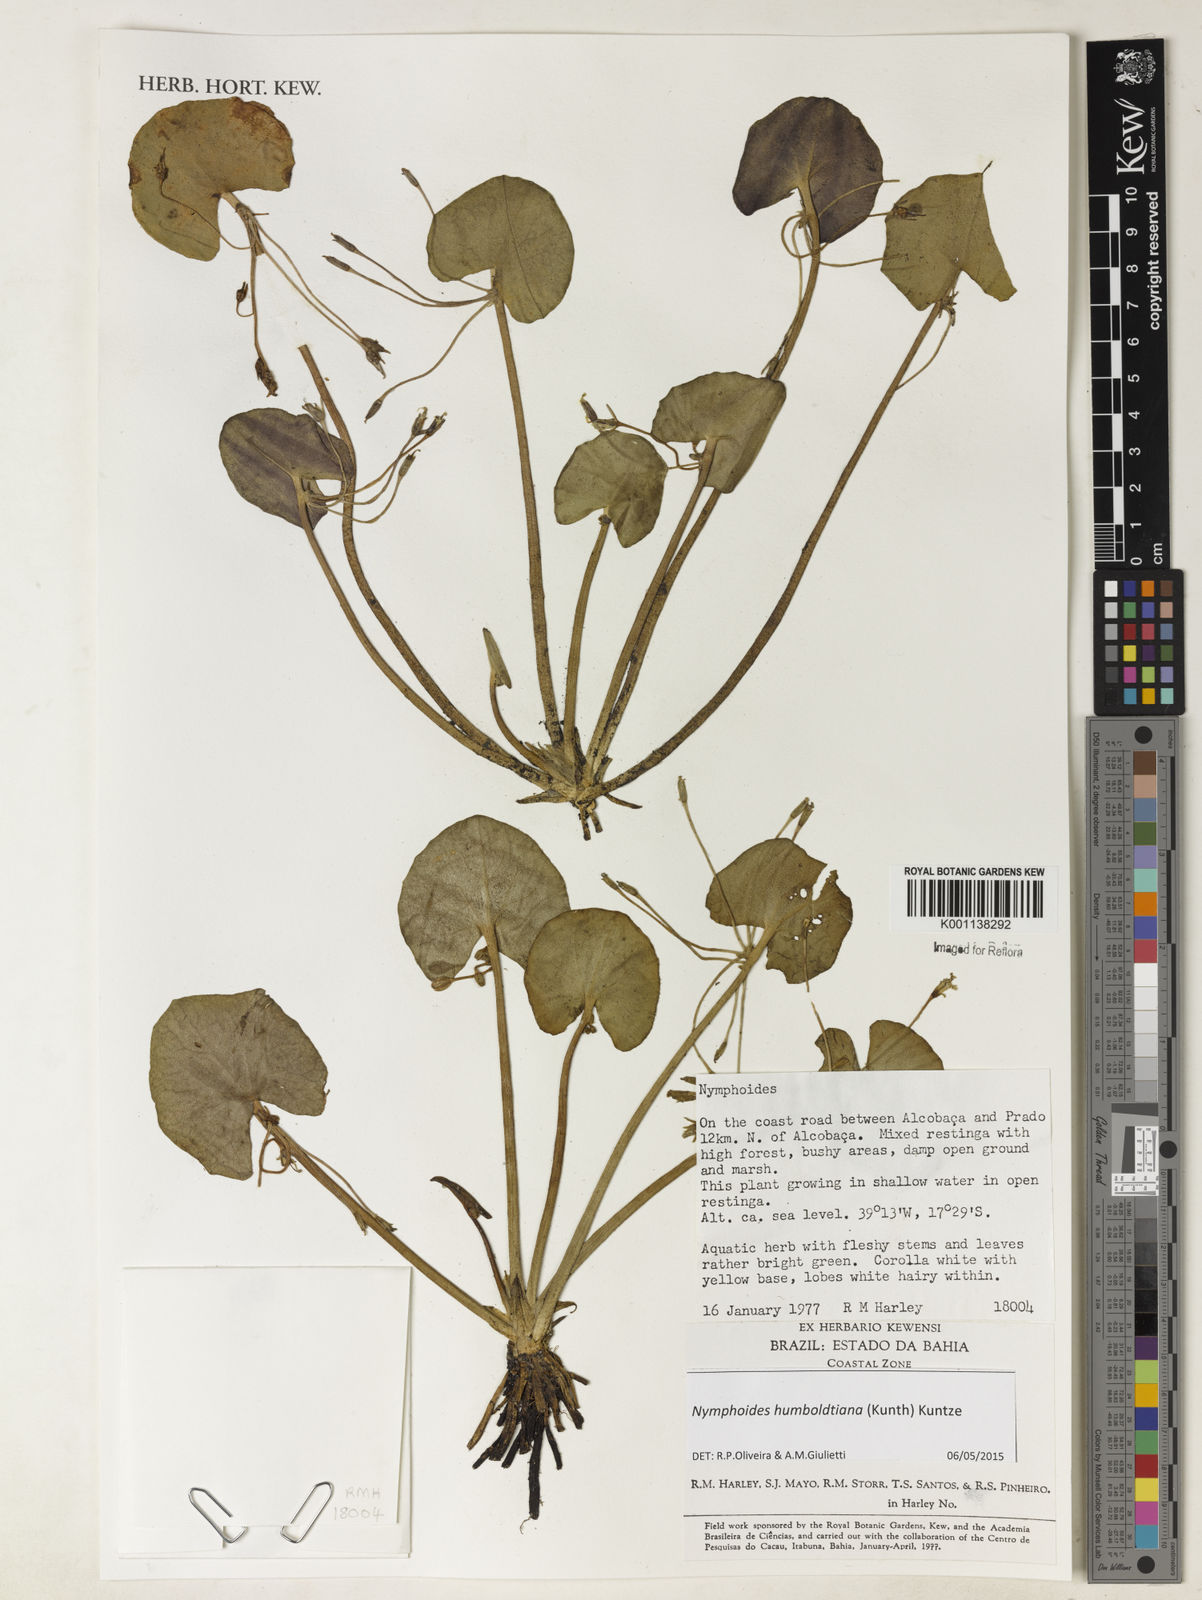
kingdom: Plantae
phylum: Tracheophyta
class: Magnoliopsida
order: Asterales
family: Menyanthaceae
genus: Nymphoides
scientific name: Nymphoides
